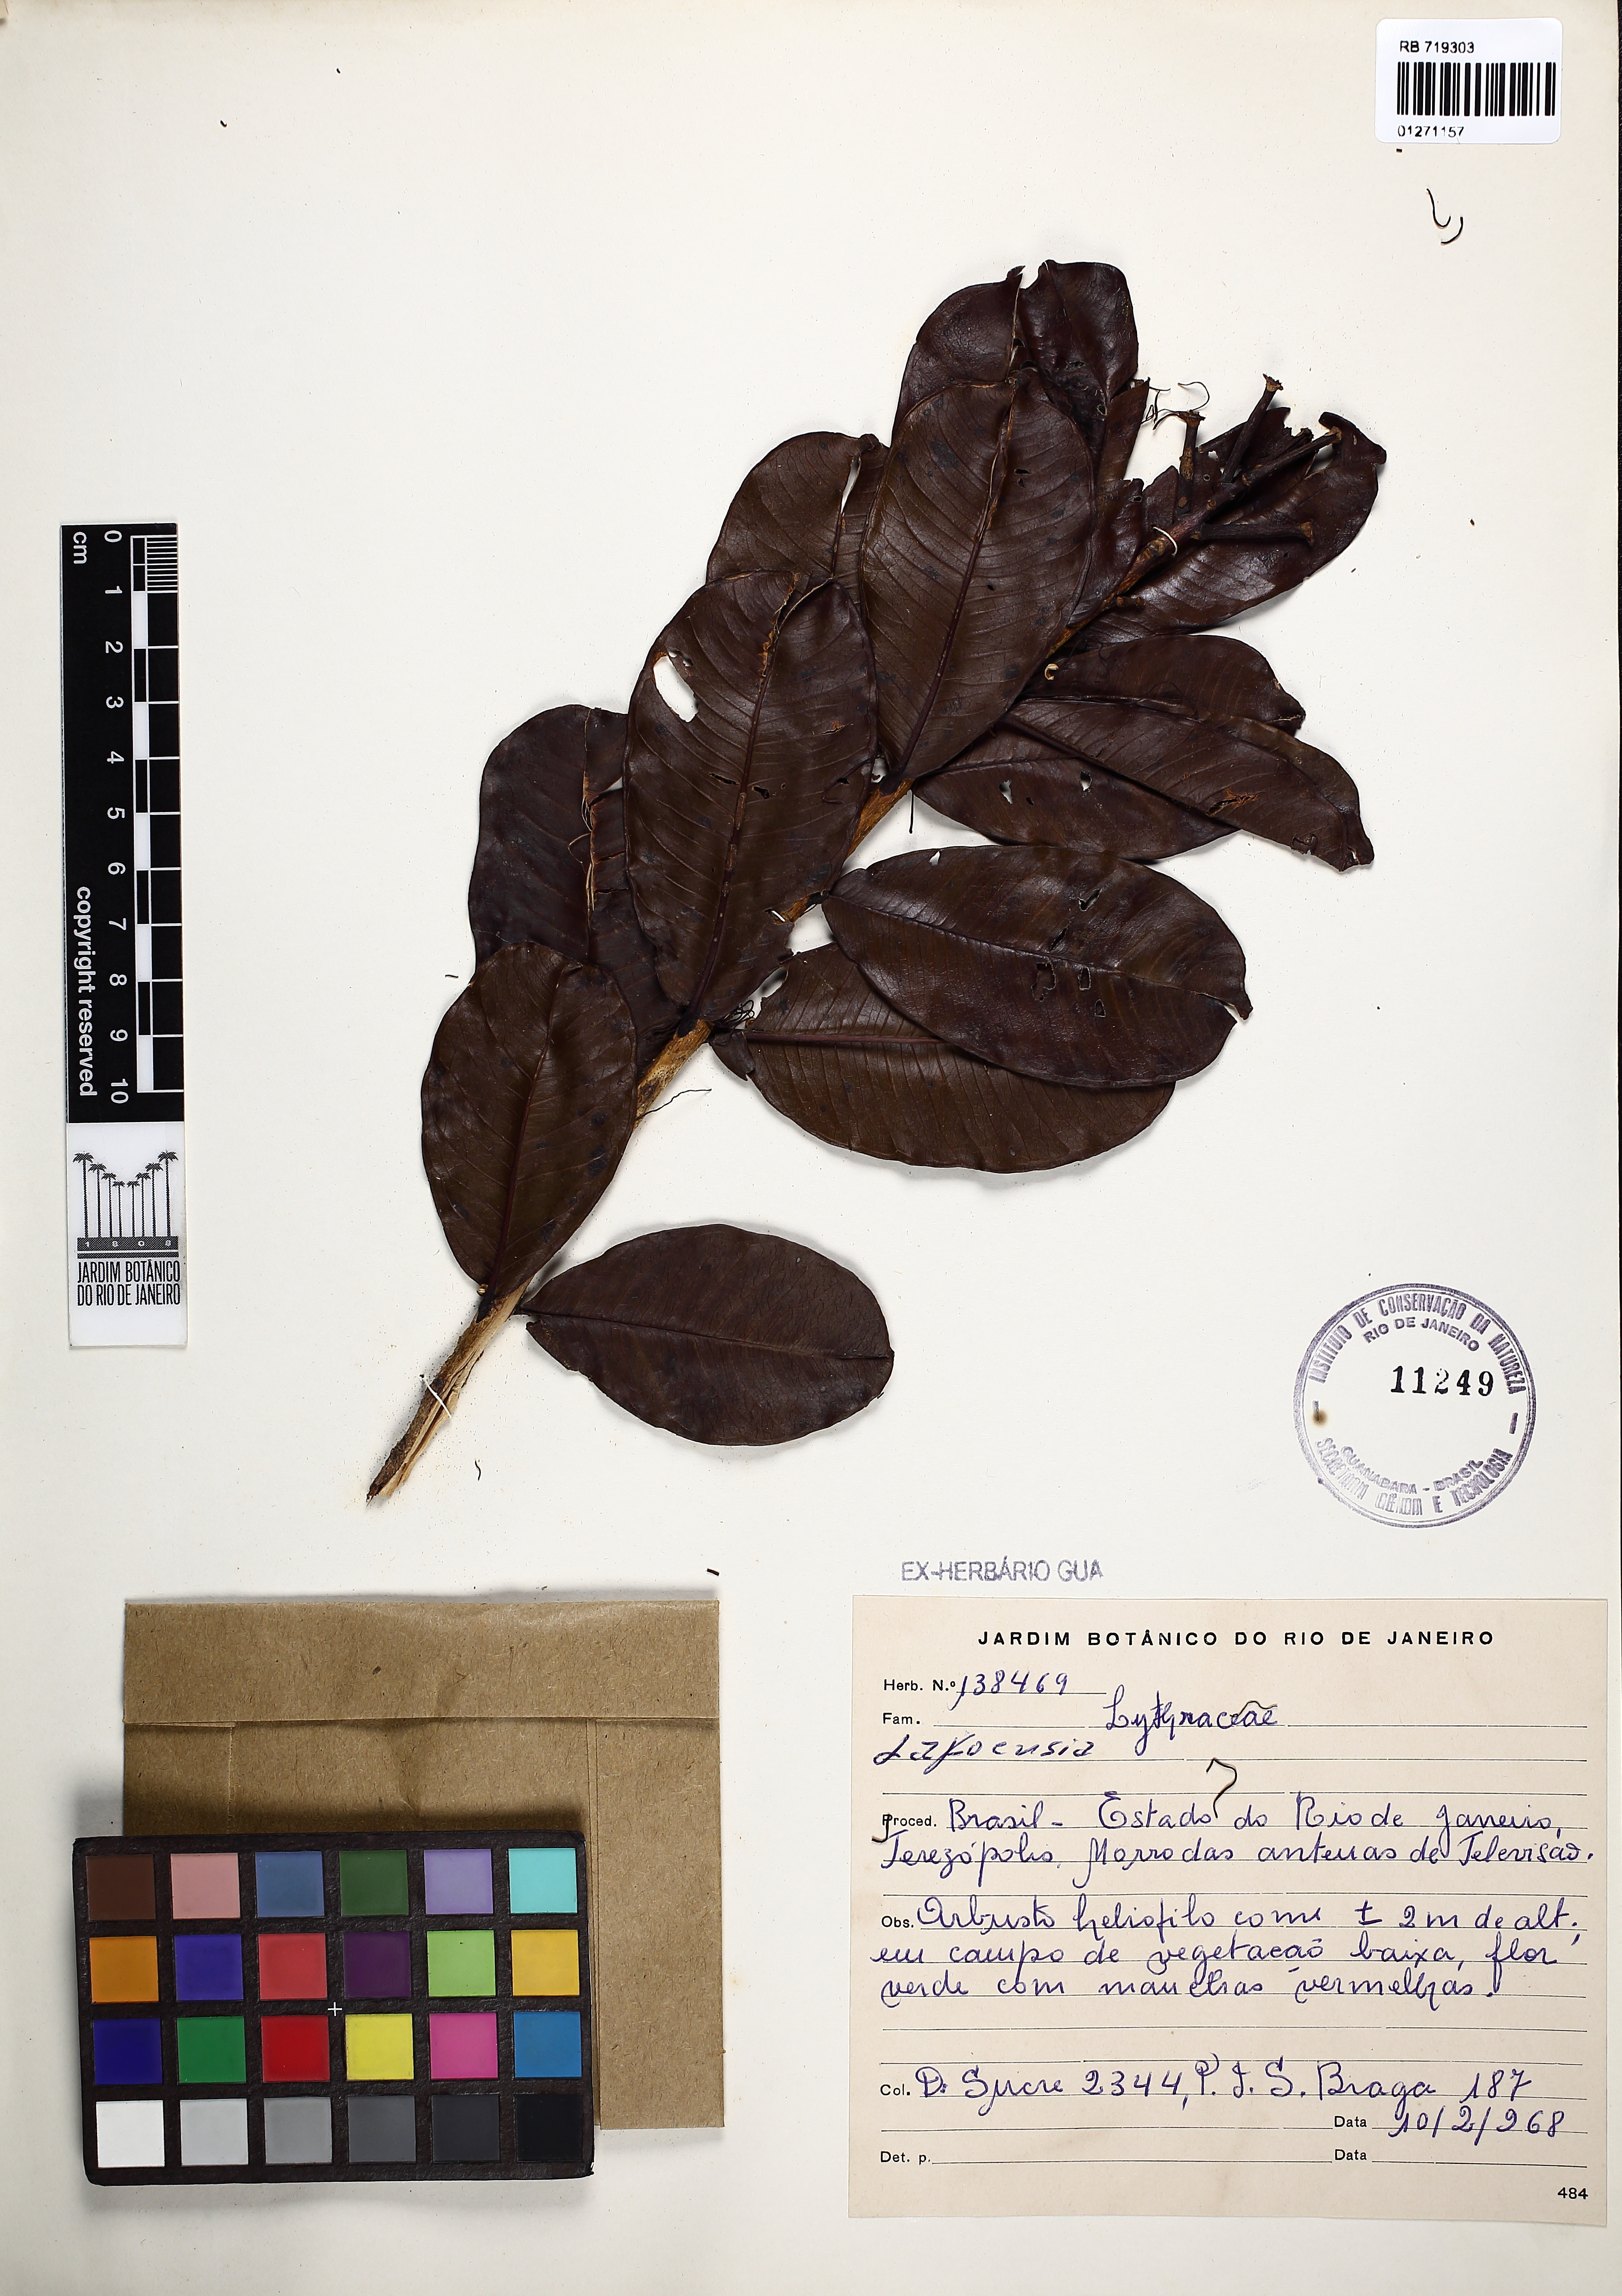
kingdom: Plantae
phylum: Tracheophyta
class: Magnoliopsida
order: Myrtales
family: Lythraceae
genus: Lafoensia
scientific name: Lafoensia
